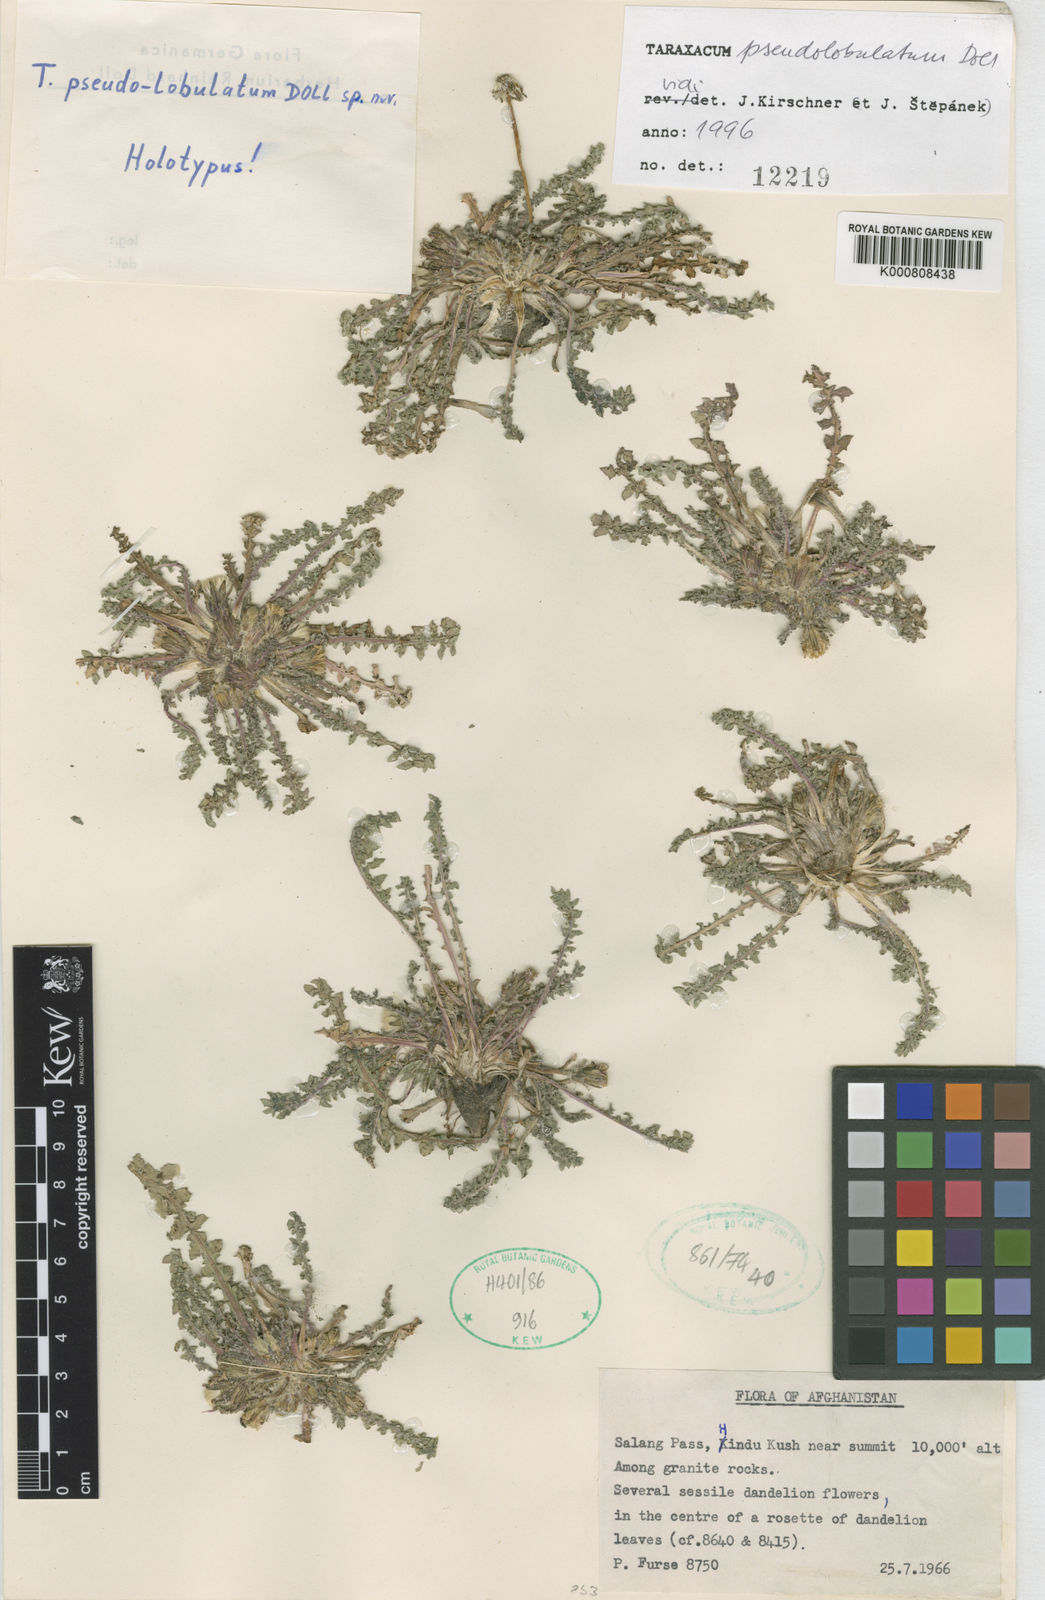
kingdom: Plantae
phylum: Tracheophyta
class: Magnoliopsida
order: Asterales
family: Asteraceae
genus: Taraxacum
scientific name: Taraxacum pseudolobulatum
